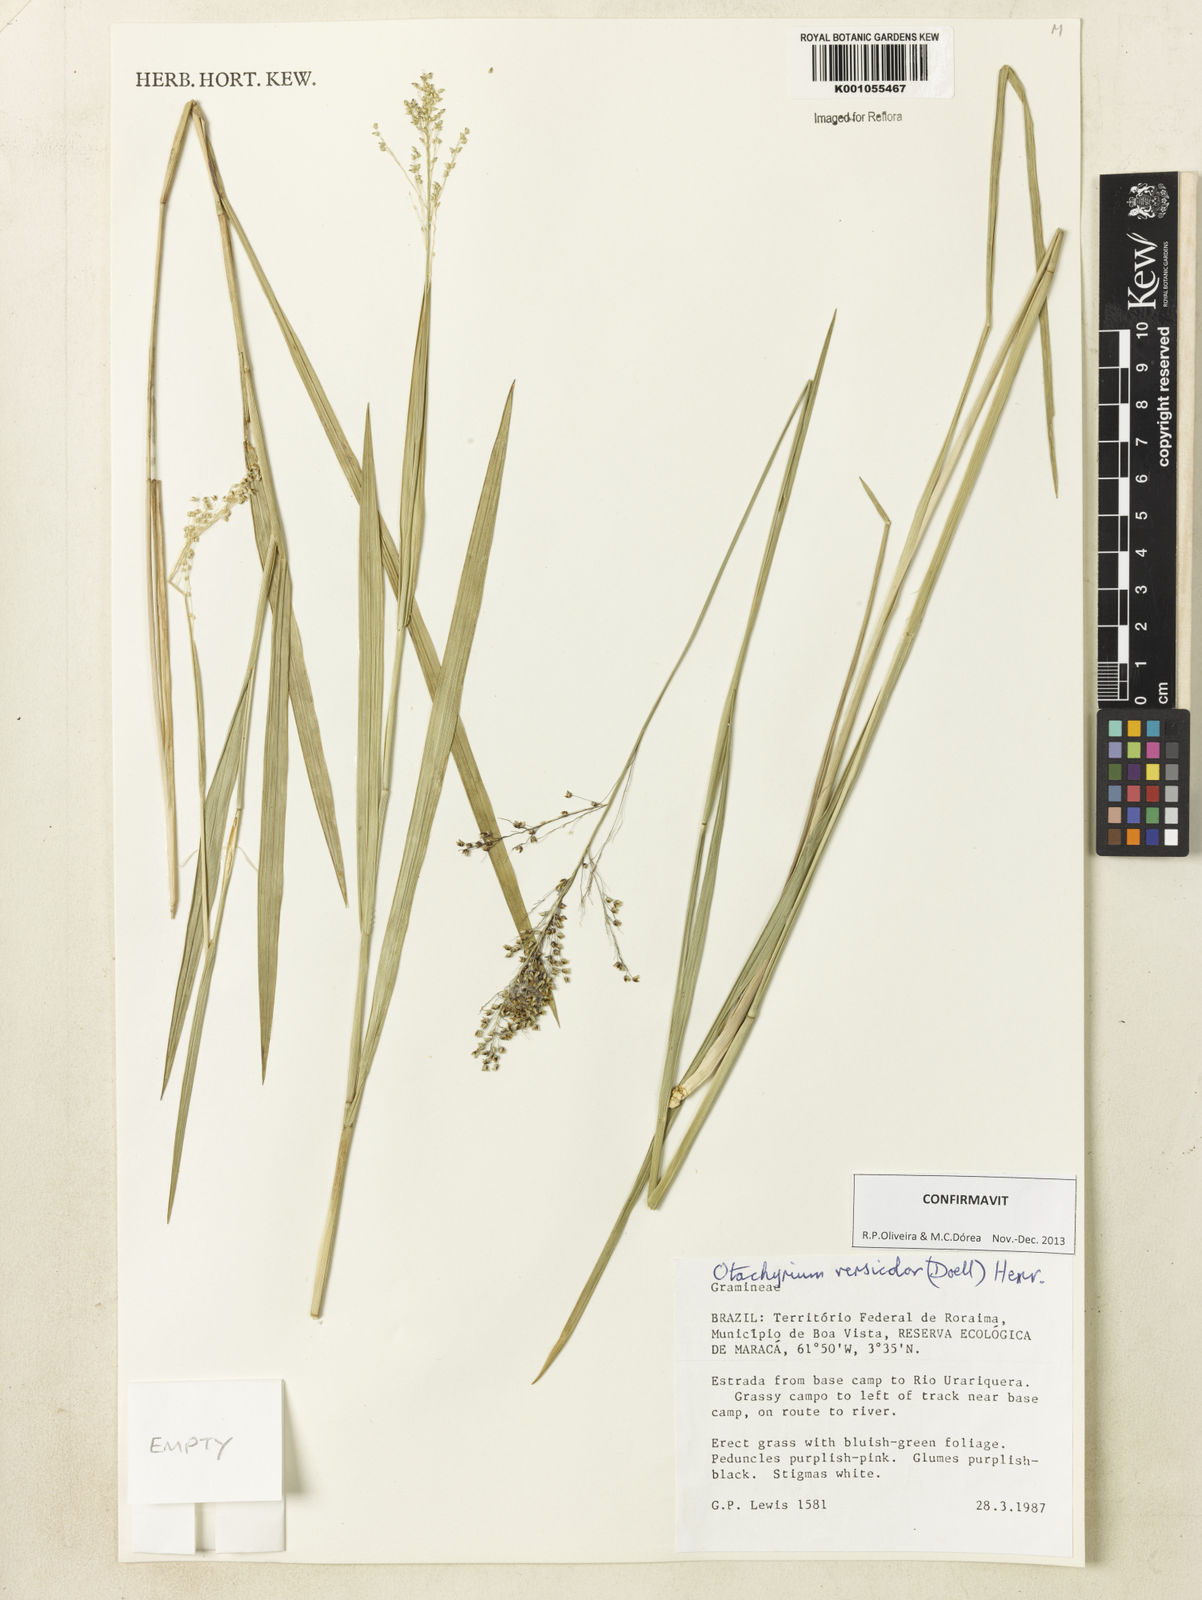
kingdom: Plantae
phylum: Tracheophyta
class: Liliopsida
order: Poales
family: Poaceae
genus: Otachyrium
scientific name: Otachyrium
